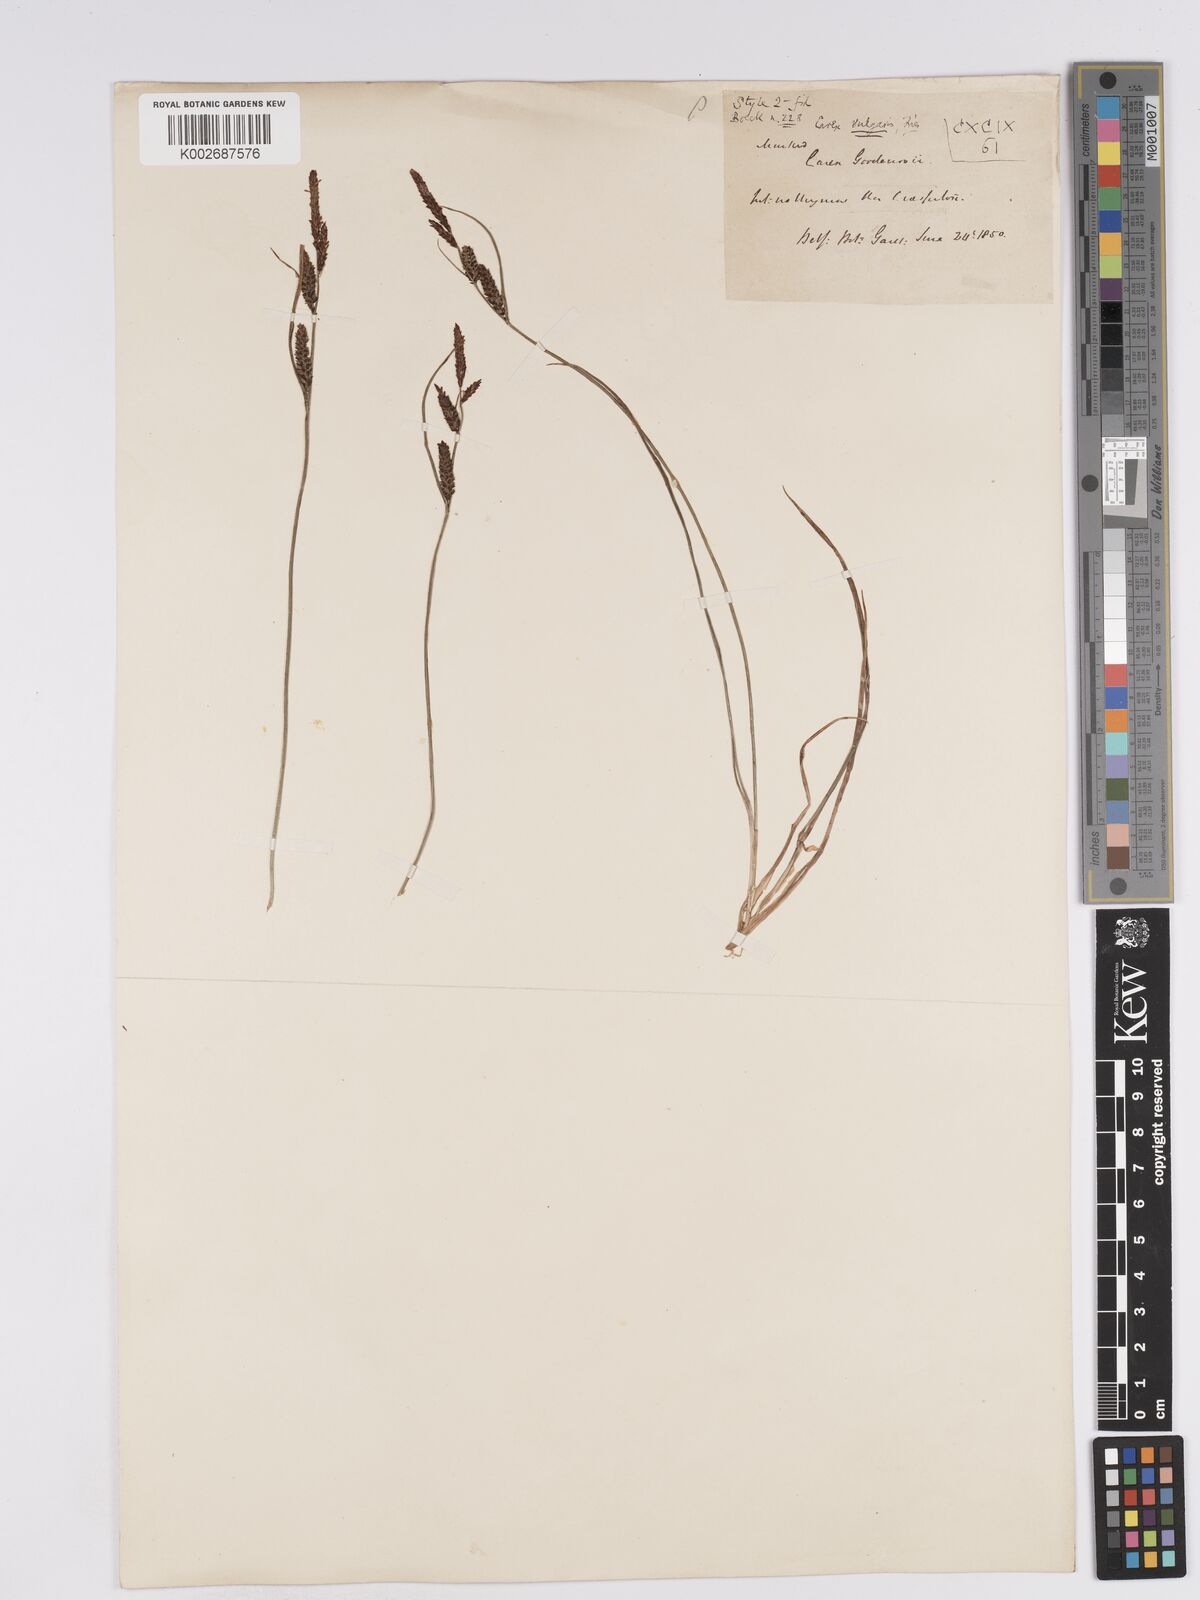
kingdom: Plantae
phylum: Tracheophyta
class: Liliopsida
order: Poales
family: Cyperaceae
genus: Carex
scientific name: Carex nigra
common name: Common sedge
